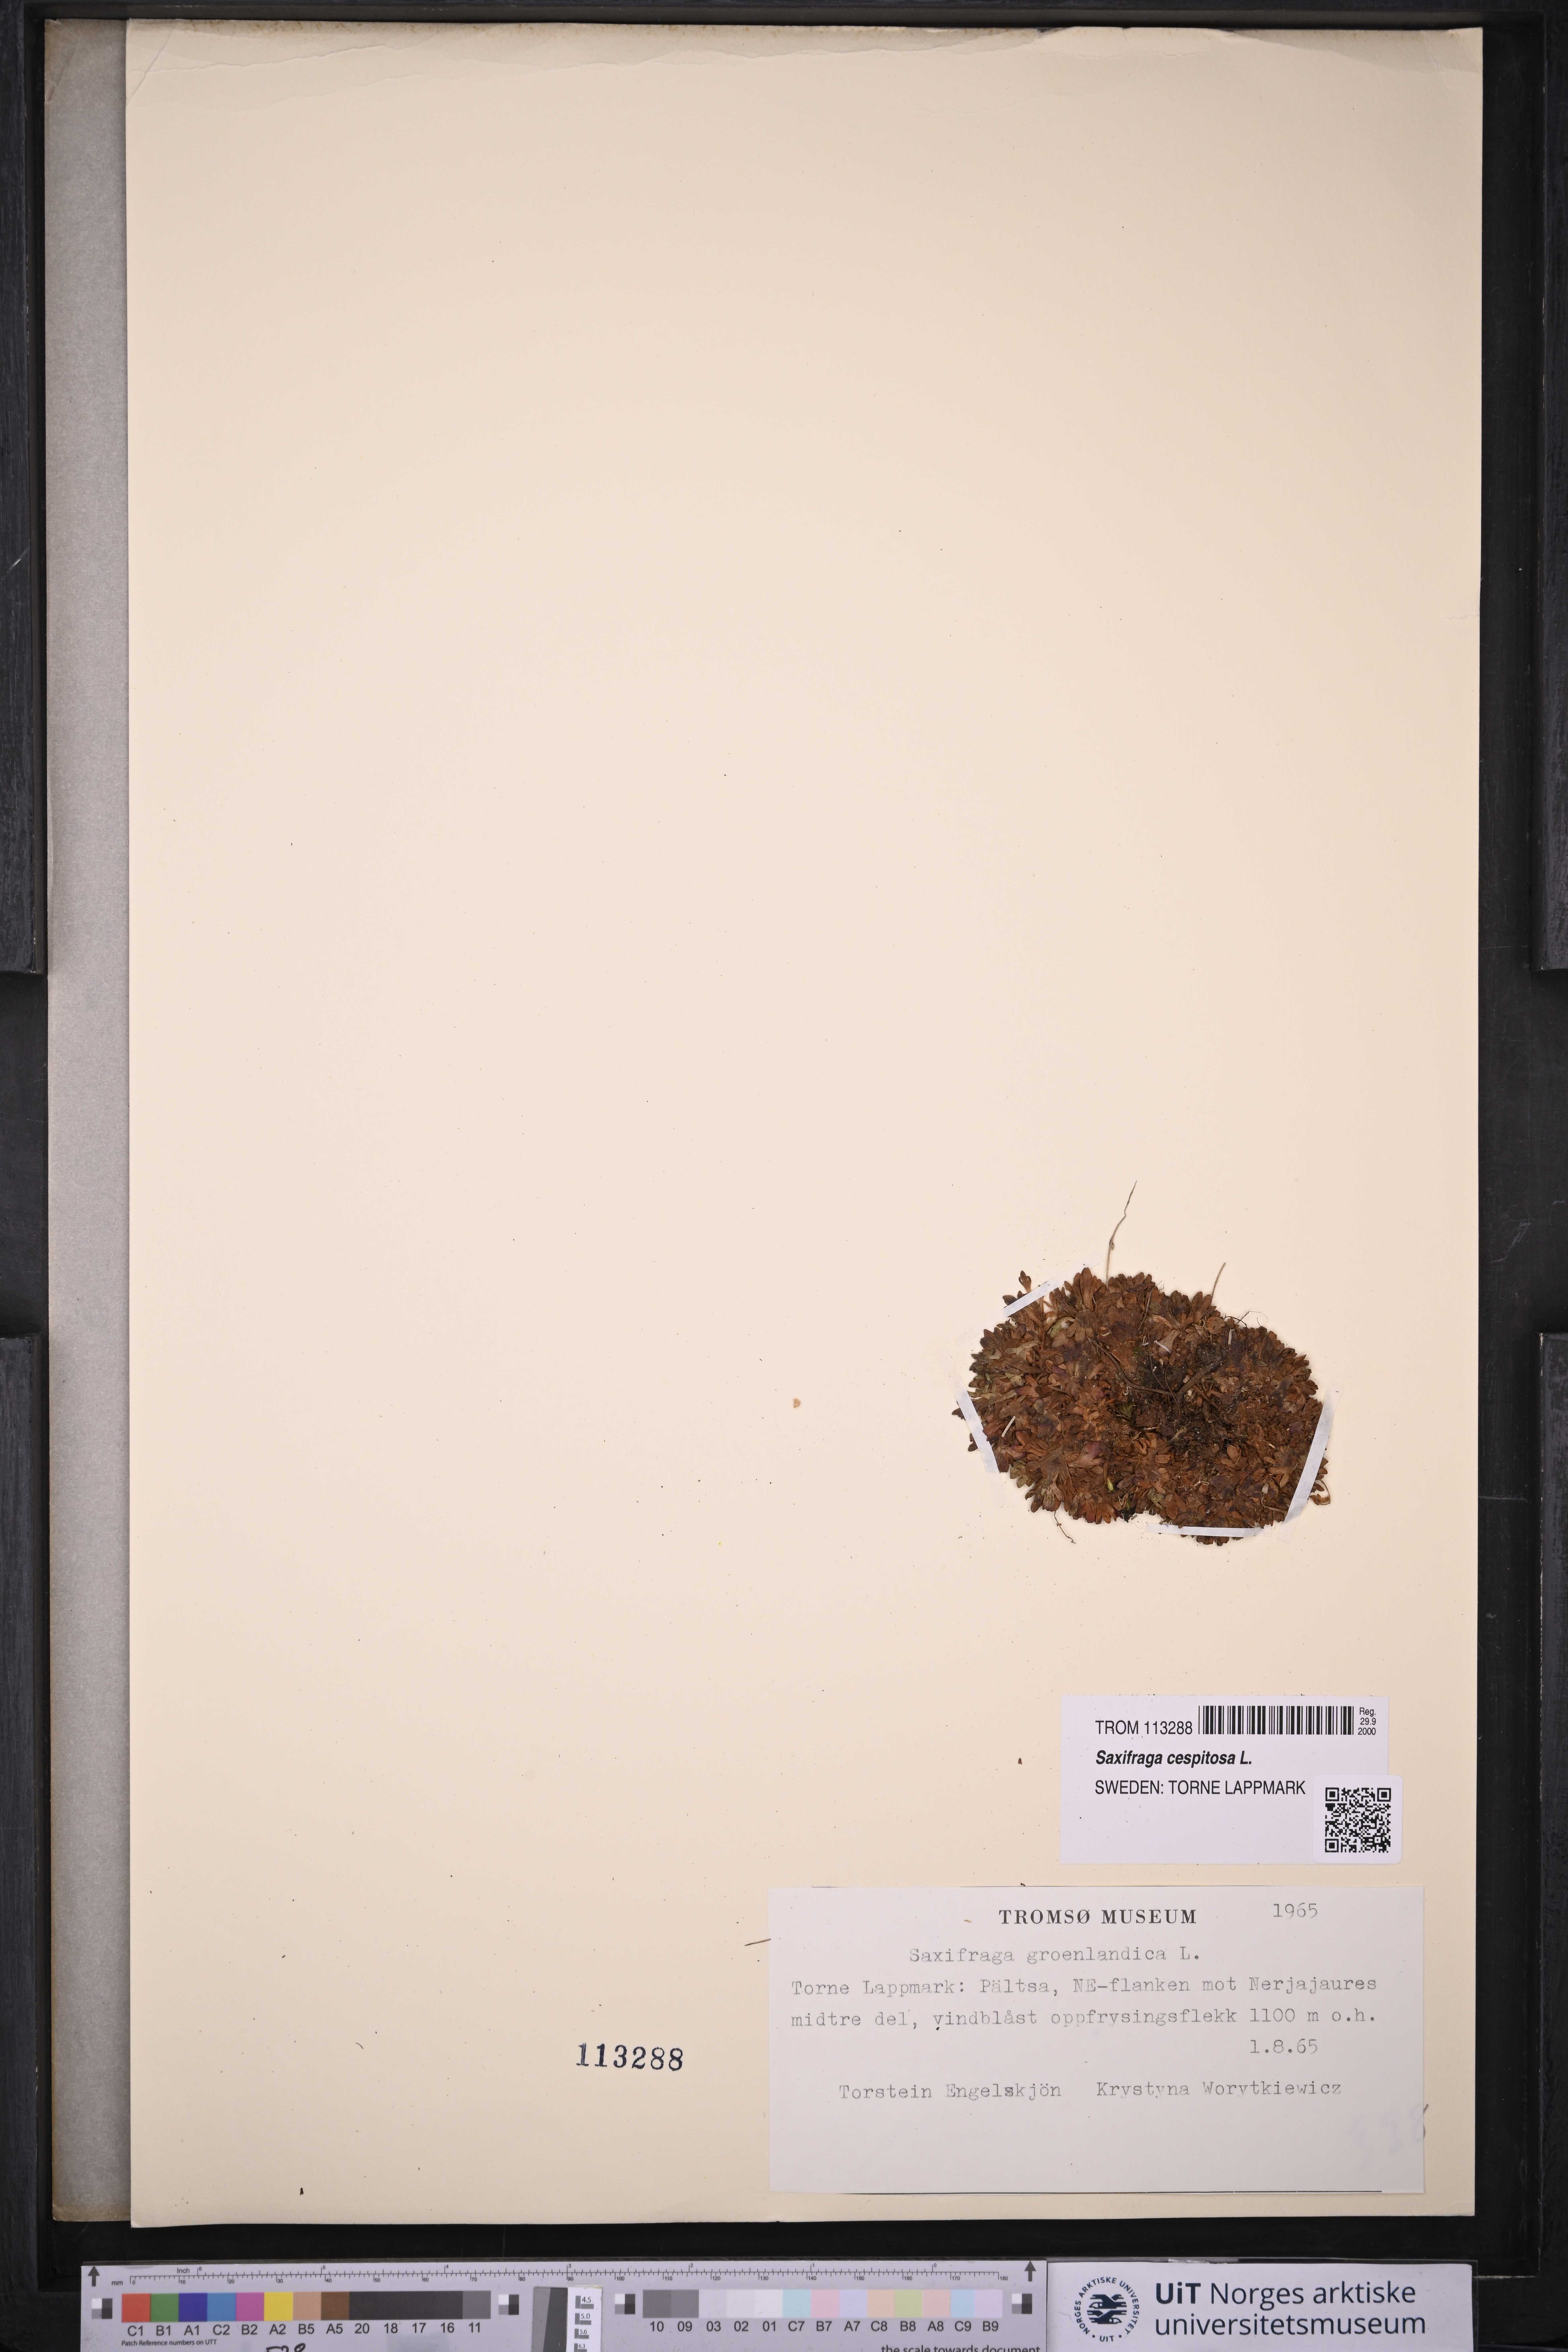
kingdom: Plantae
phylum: Tracheophyta
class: Magnoliopsida
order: Saxifragales
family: Saxifragaceae
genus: Saxifraga
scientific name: Saxifraga cespitosa
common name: Tufted saxifrage
